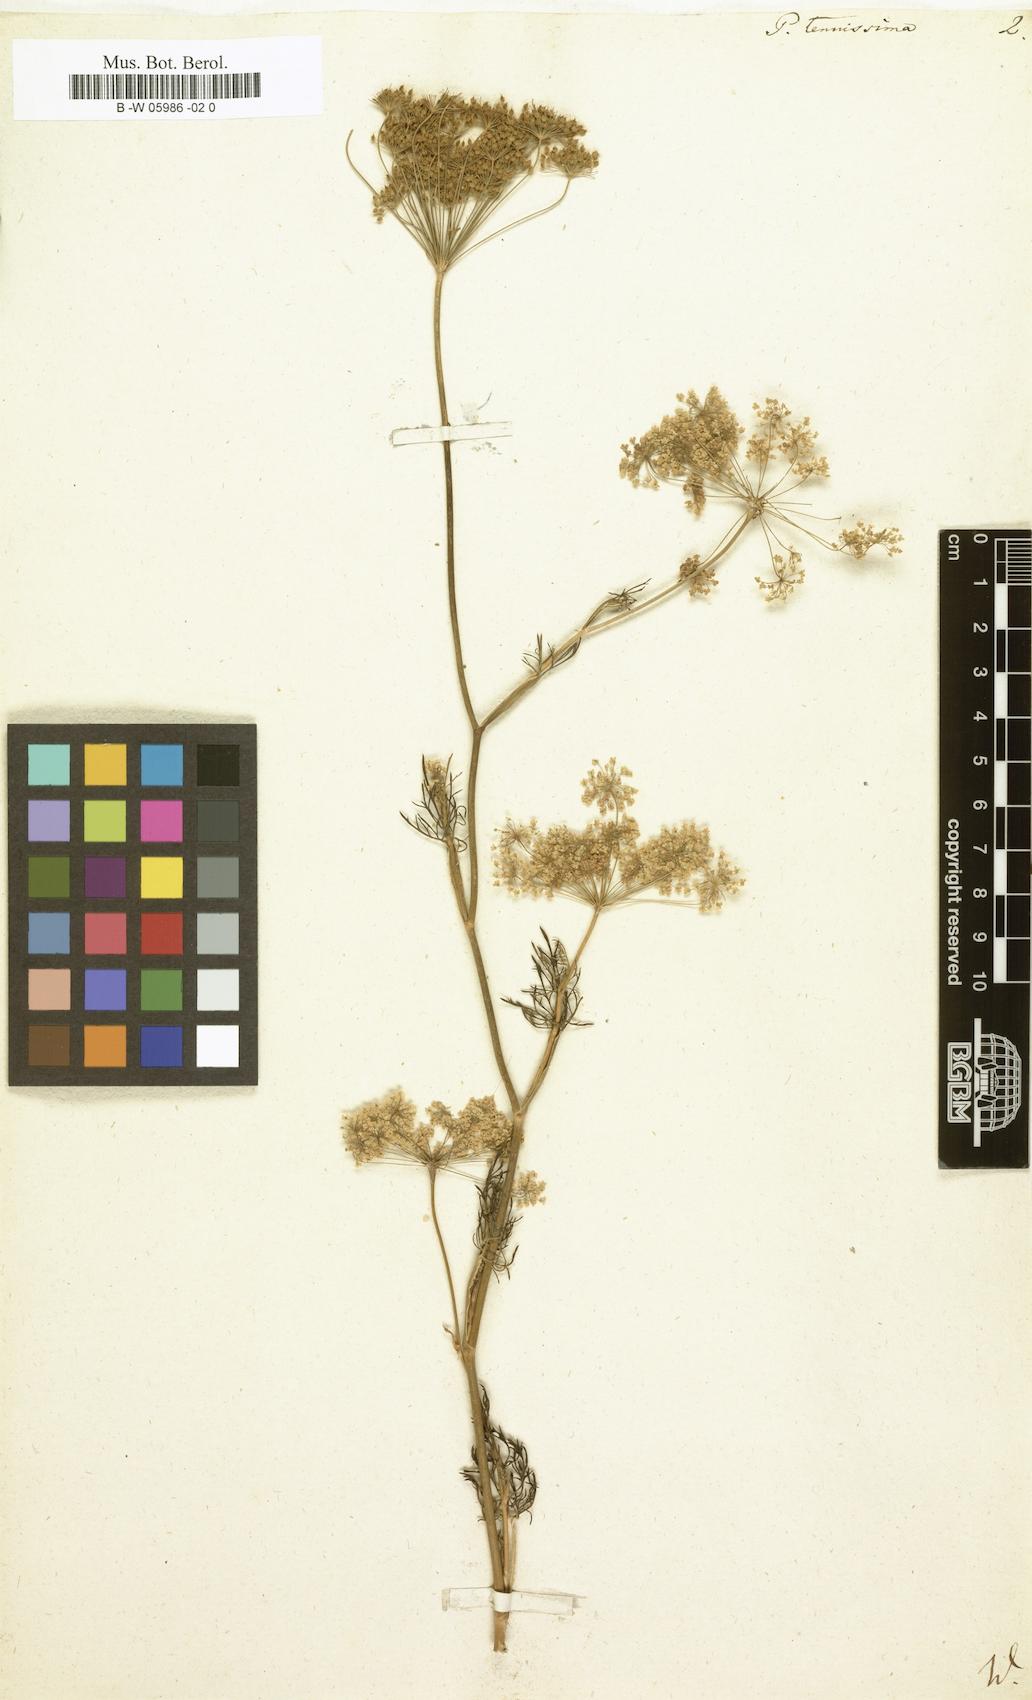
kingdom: Plantae
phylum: Tracheophyta
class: Magnoliopsida
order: Apiales
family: Apiaceae
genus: Pimpinella
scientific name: Pimpinella erythraeae
